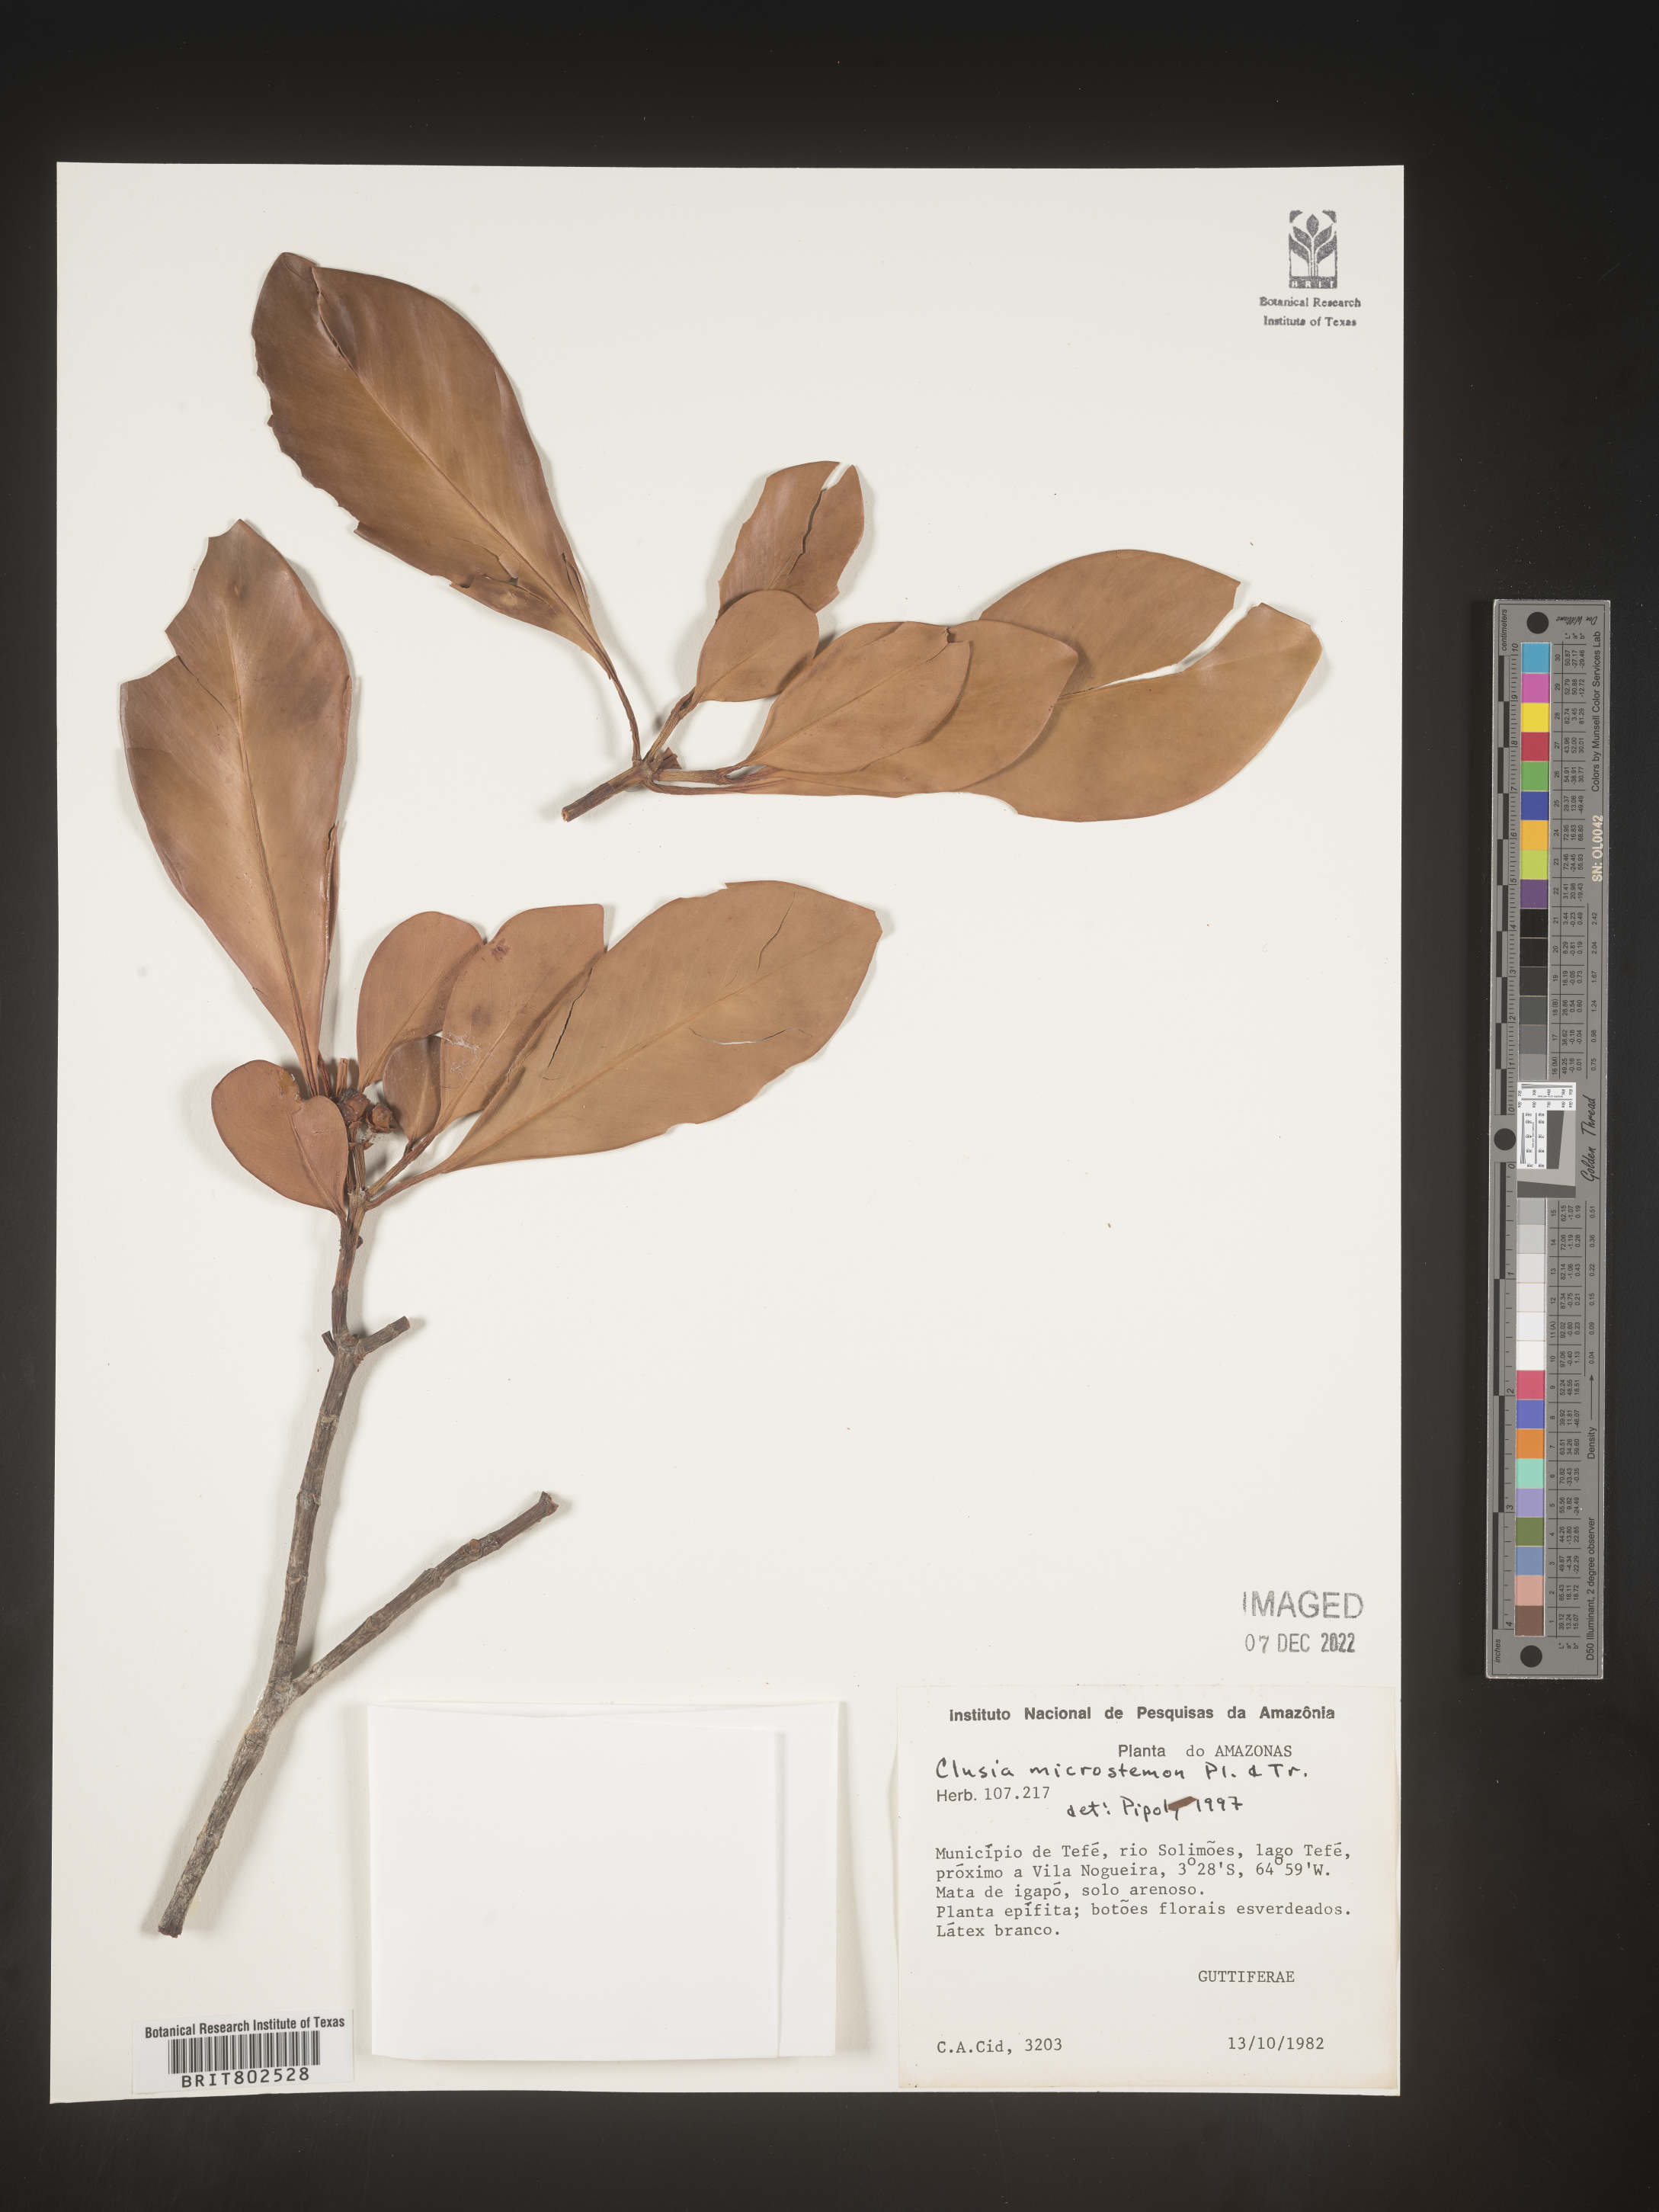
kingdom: Plantae
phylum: Tracheophyta
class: Magnoliopsida
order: Malpighiales
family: Clusiaceae
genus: Clusia
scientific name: Clusia microstemon
